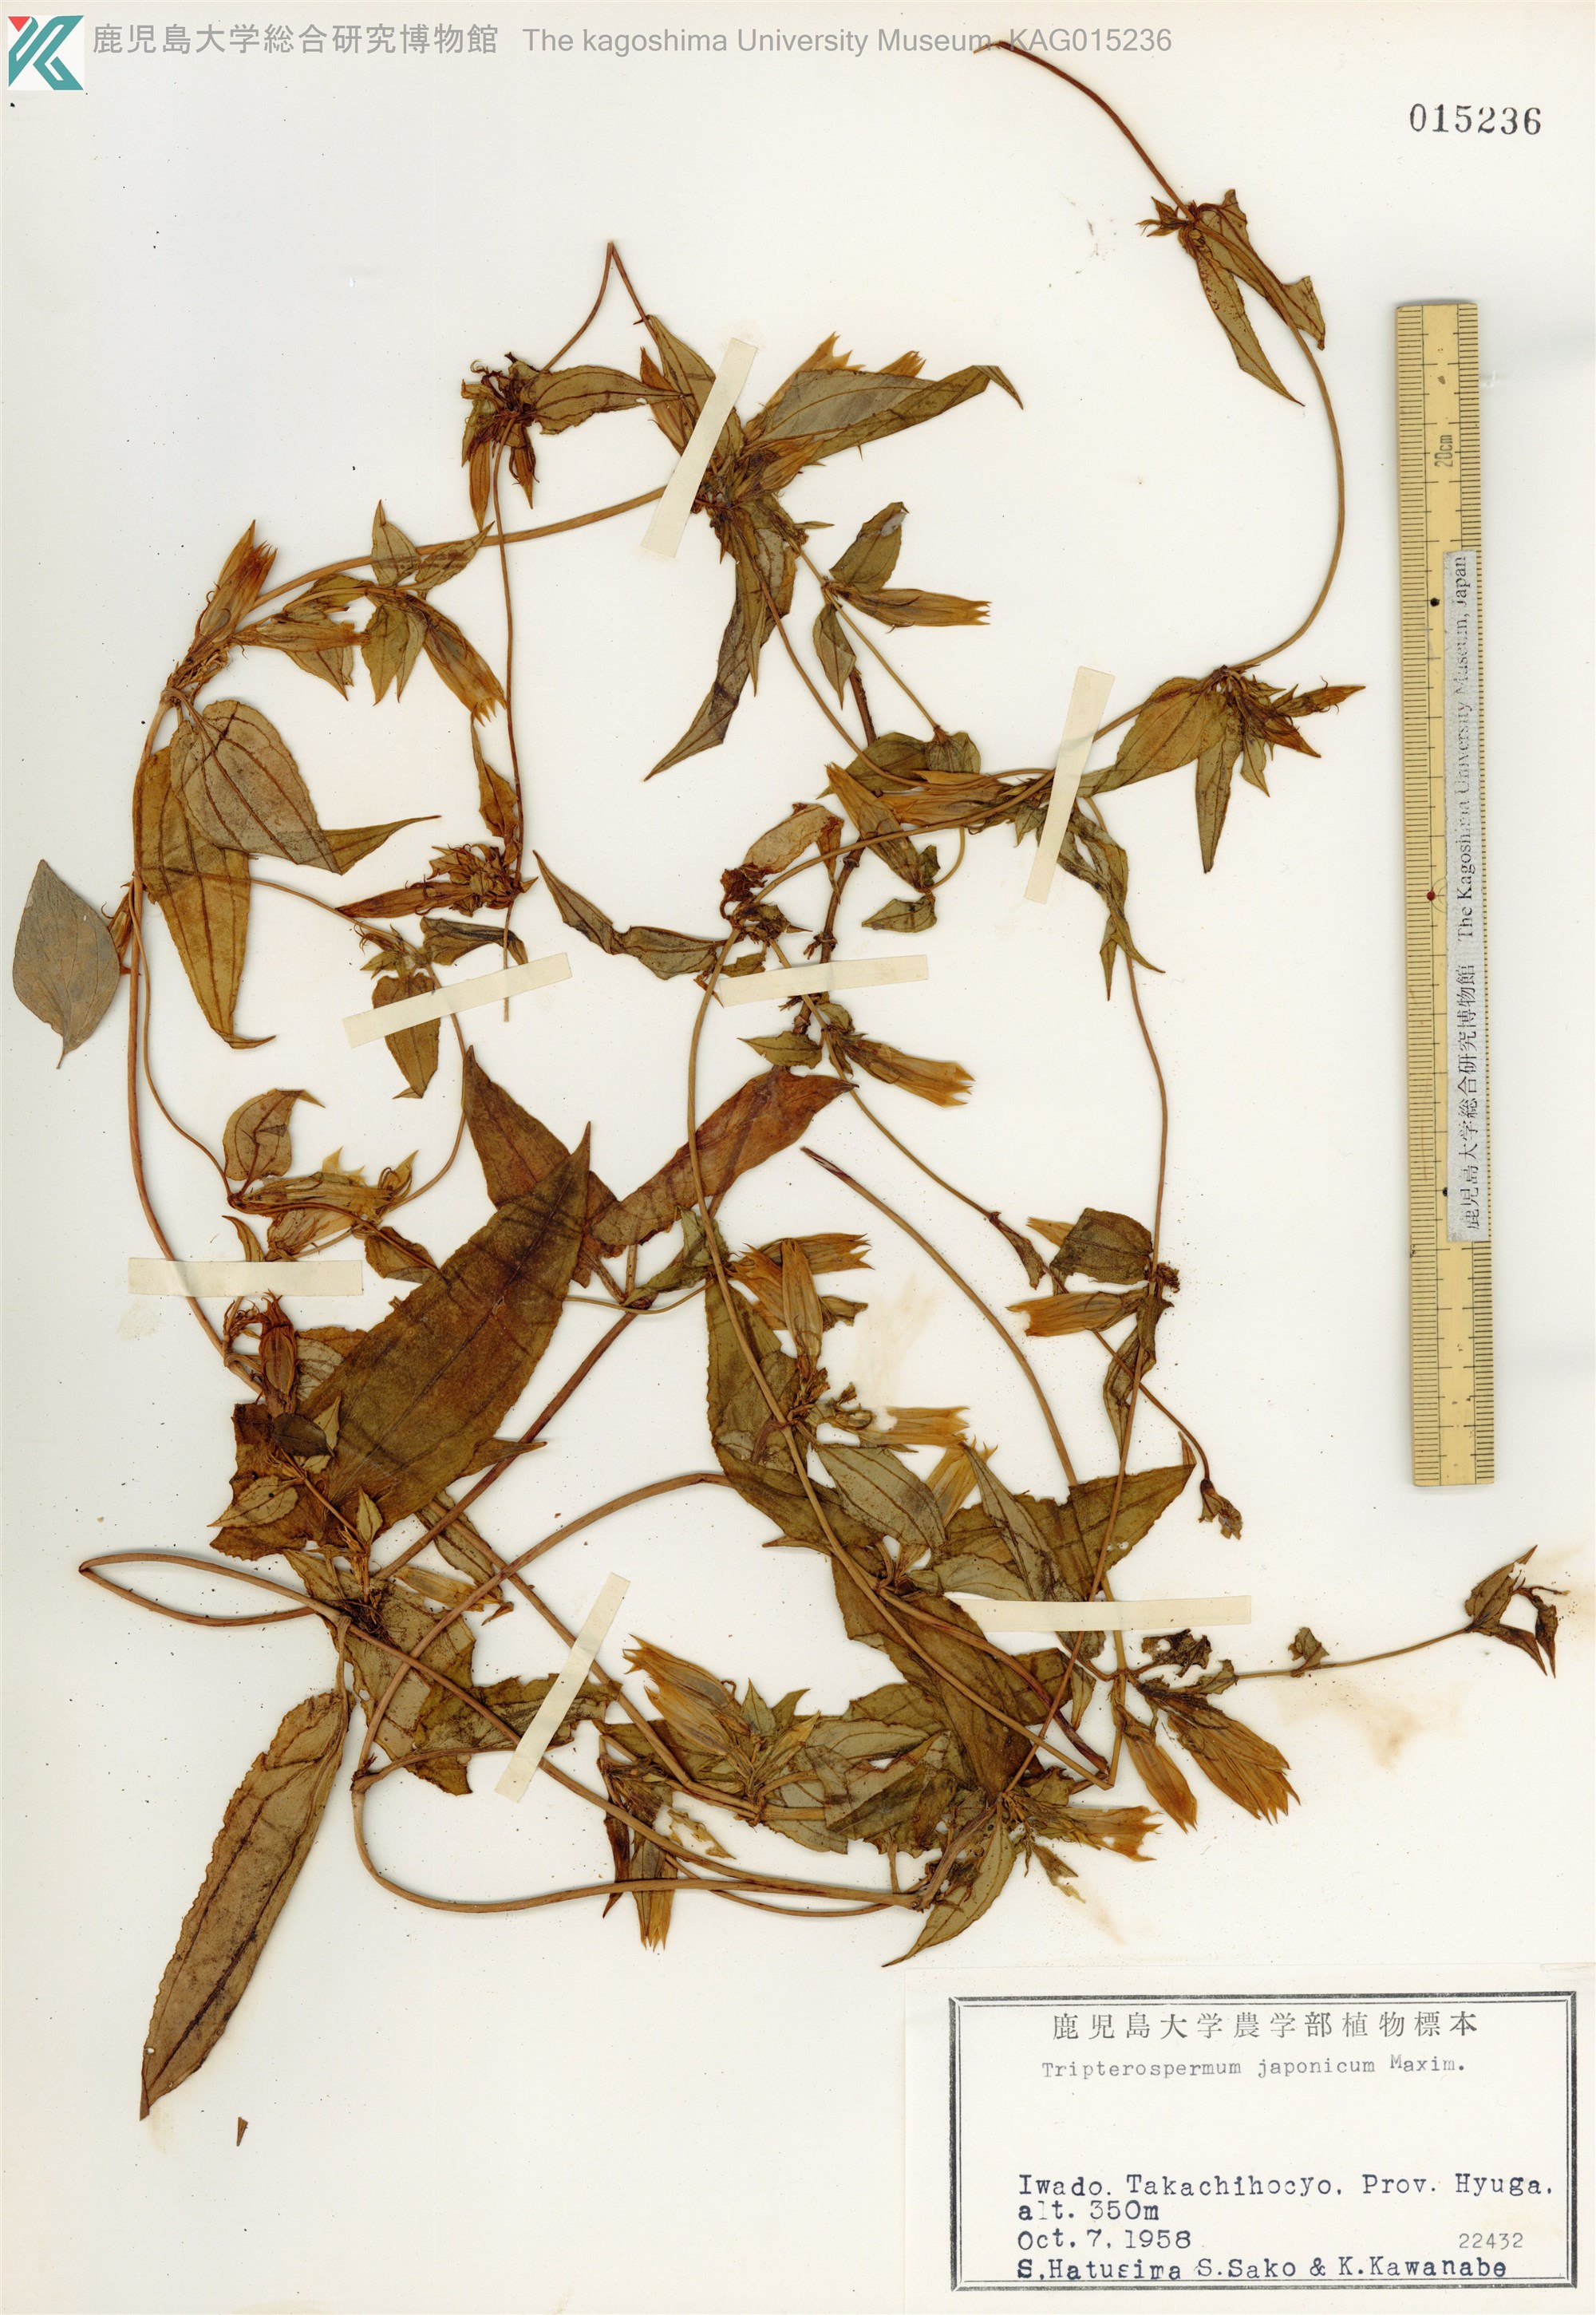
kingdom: Plantae
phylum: Tracheophyta
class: Magnoliopsida
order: Gentianales
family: Gentianaceae
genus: Tripterospermum
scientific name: Tripterospermum trinervium
